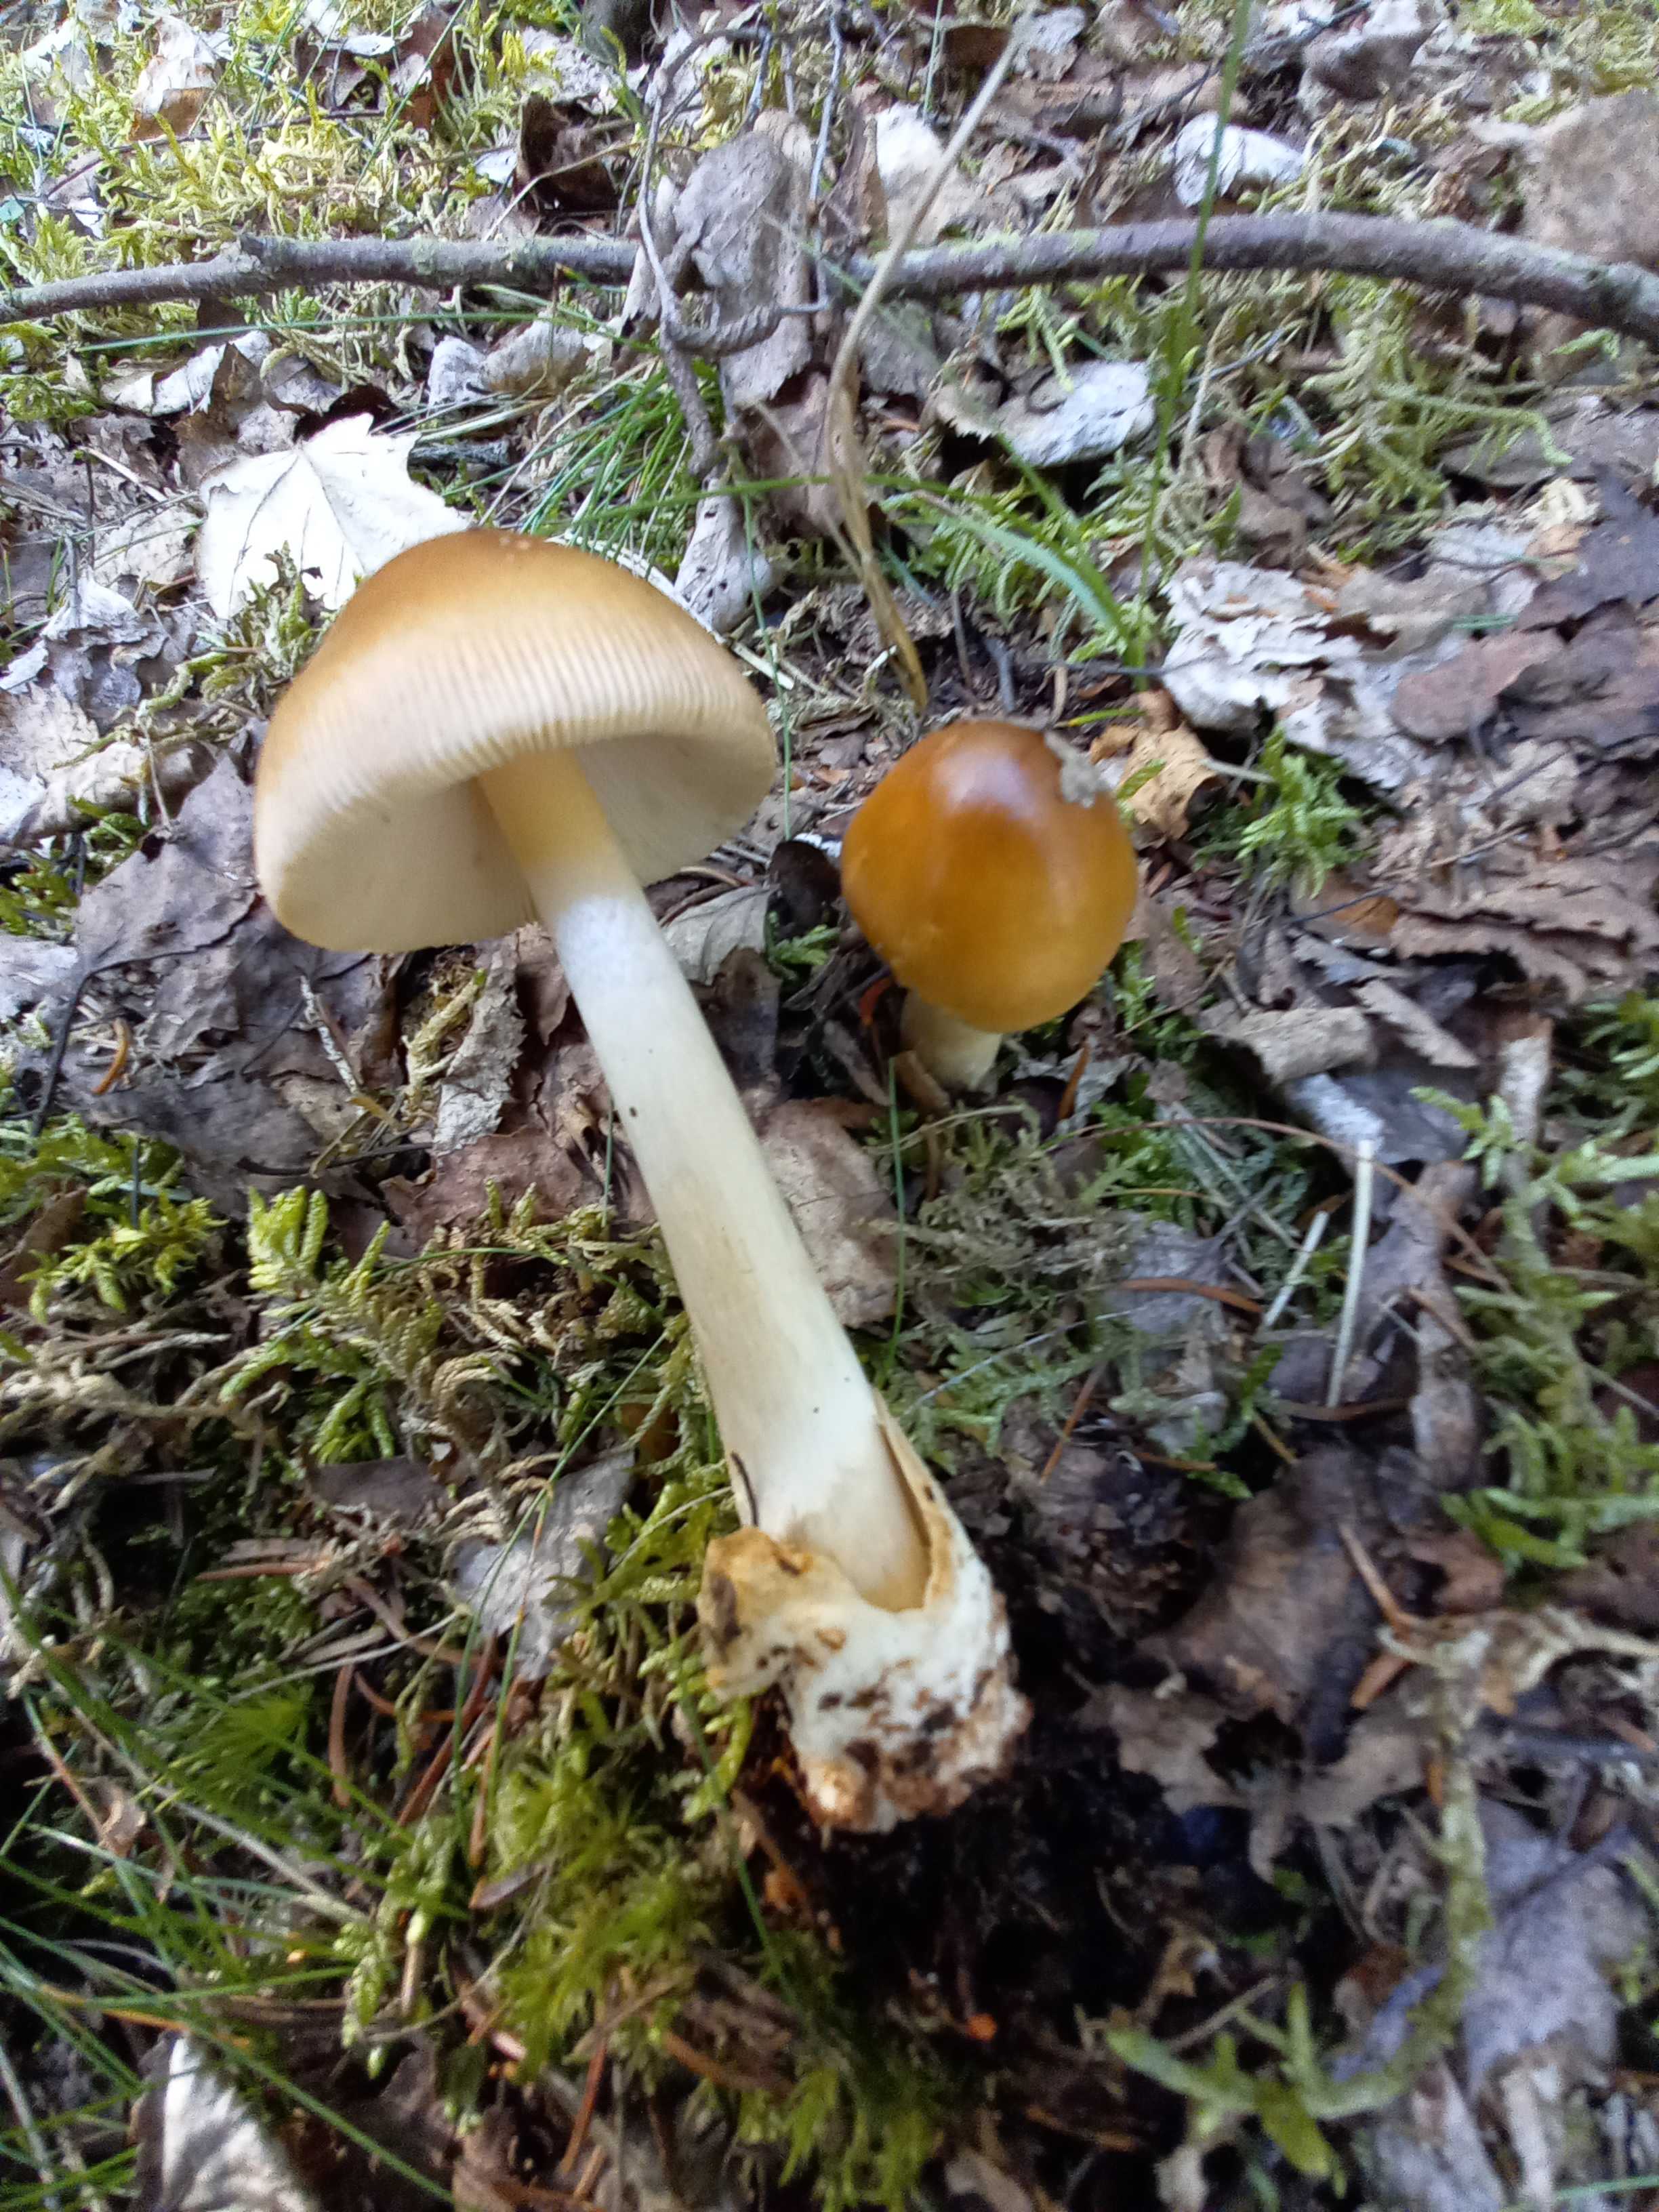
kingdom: Fungi
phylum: Basidiomycota
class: Agaricomycetes
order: Agaricales
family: Amanitaceae
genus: Amanita
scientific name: Amanita fulva
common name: brun kam-fluesvamp
